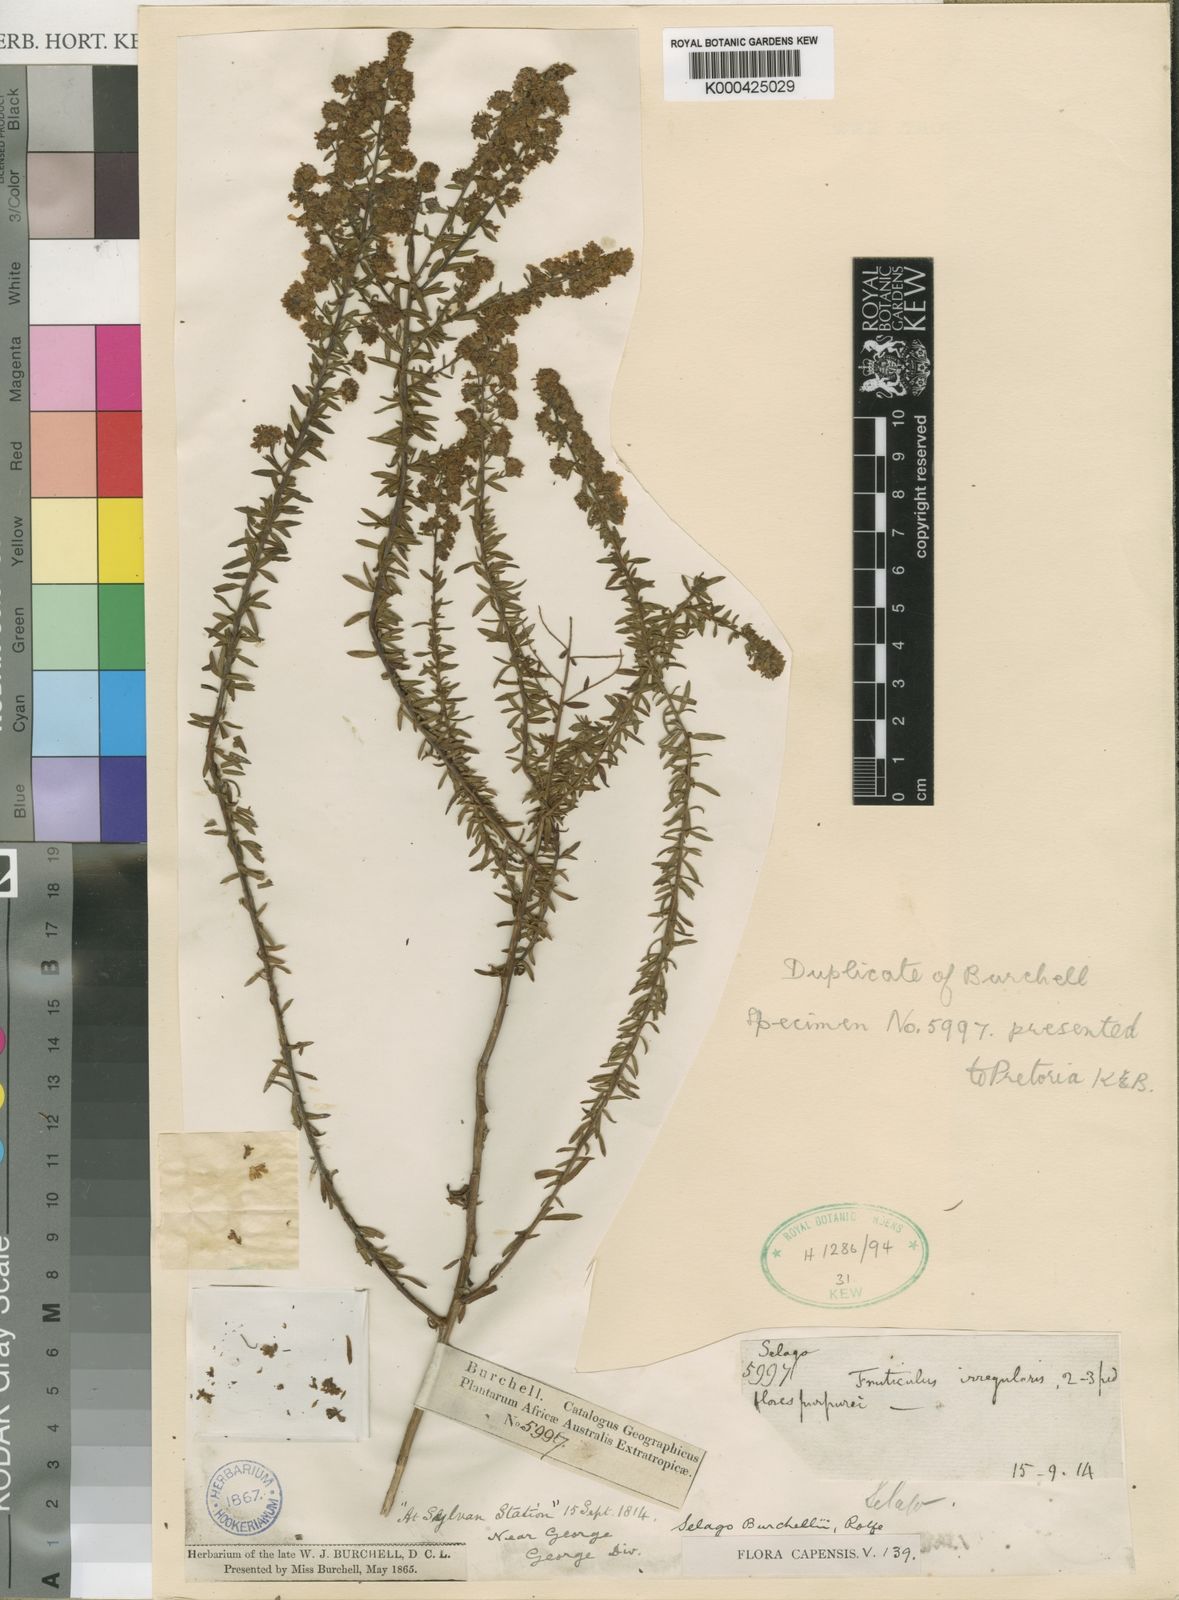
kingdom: Plantae
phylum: Tracheophyta
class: Magnoliopsida
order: Lamiales
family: Scrophulariaceae
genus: Selago
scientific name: Selago burchellii
